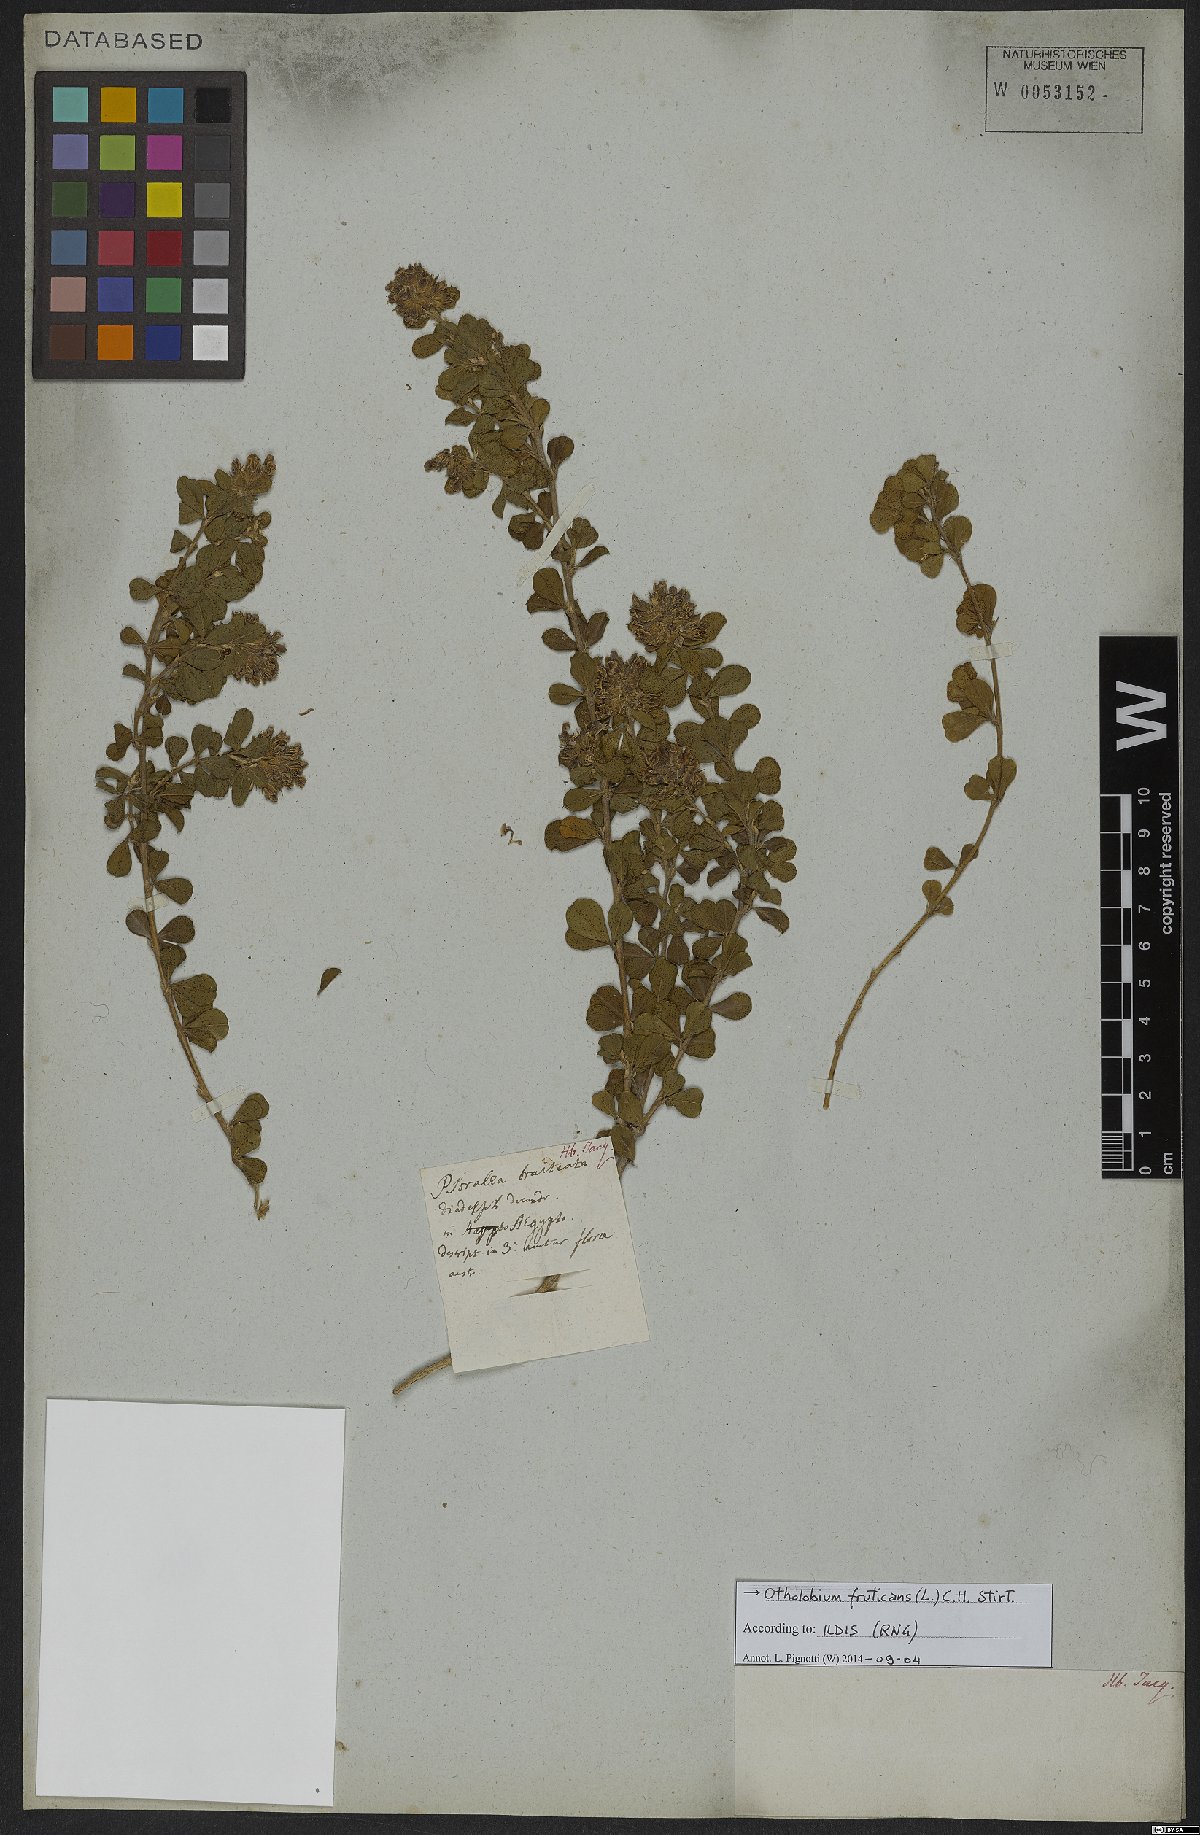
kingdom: Plantae
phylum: Tracheophyta
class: Magnoliopsida
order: Fabales
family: Fabaceae
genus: Psoralea
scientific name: Psoralea fruticans
